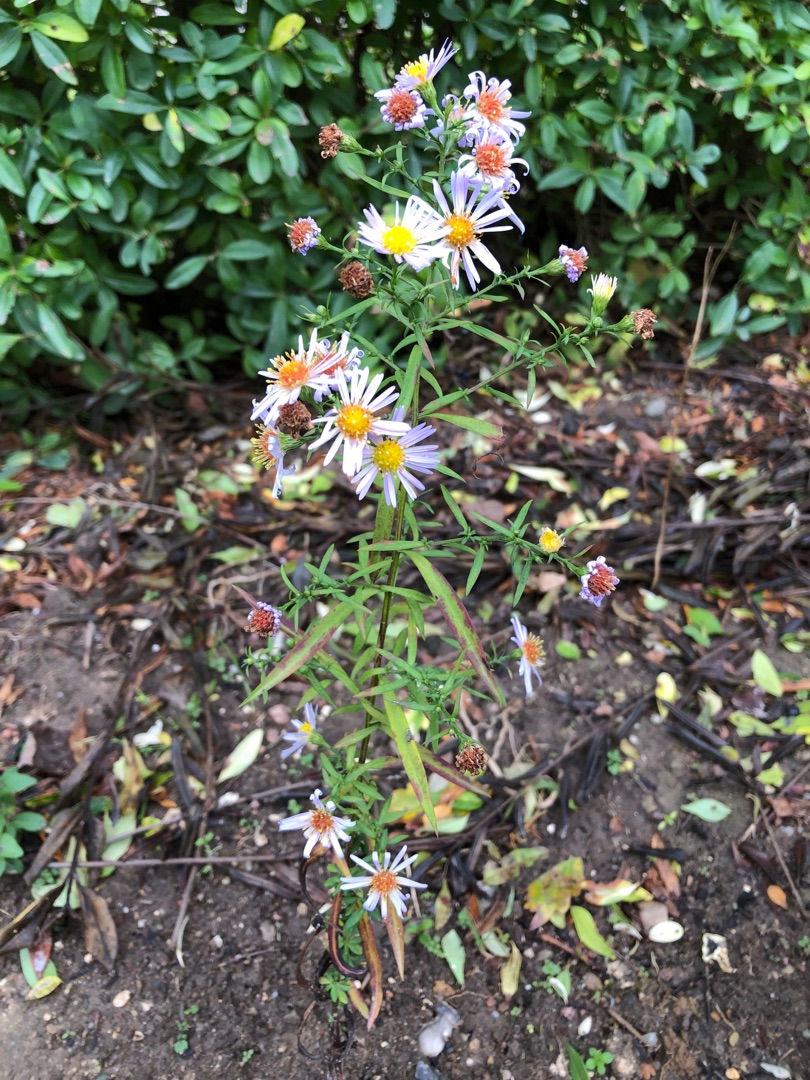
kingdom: Plantae
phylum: Tracheophyta
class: Magnoliopsida
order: Asterales
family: Asteraceae
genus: Symphyotrichum
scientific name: Symphyotrichum lanceolatum
